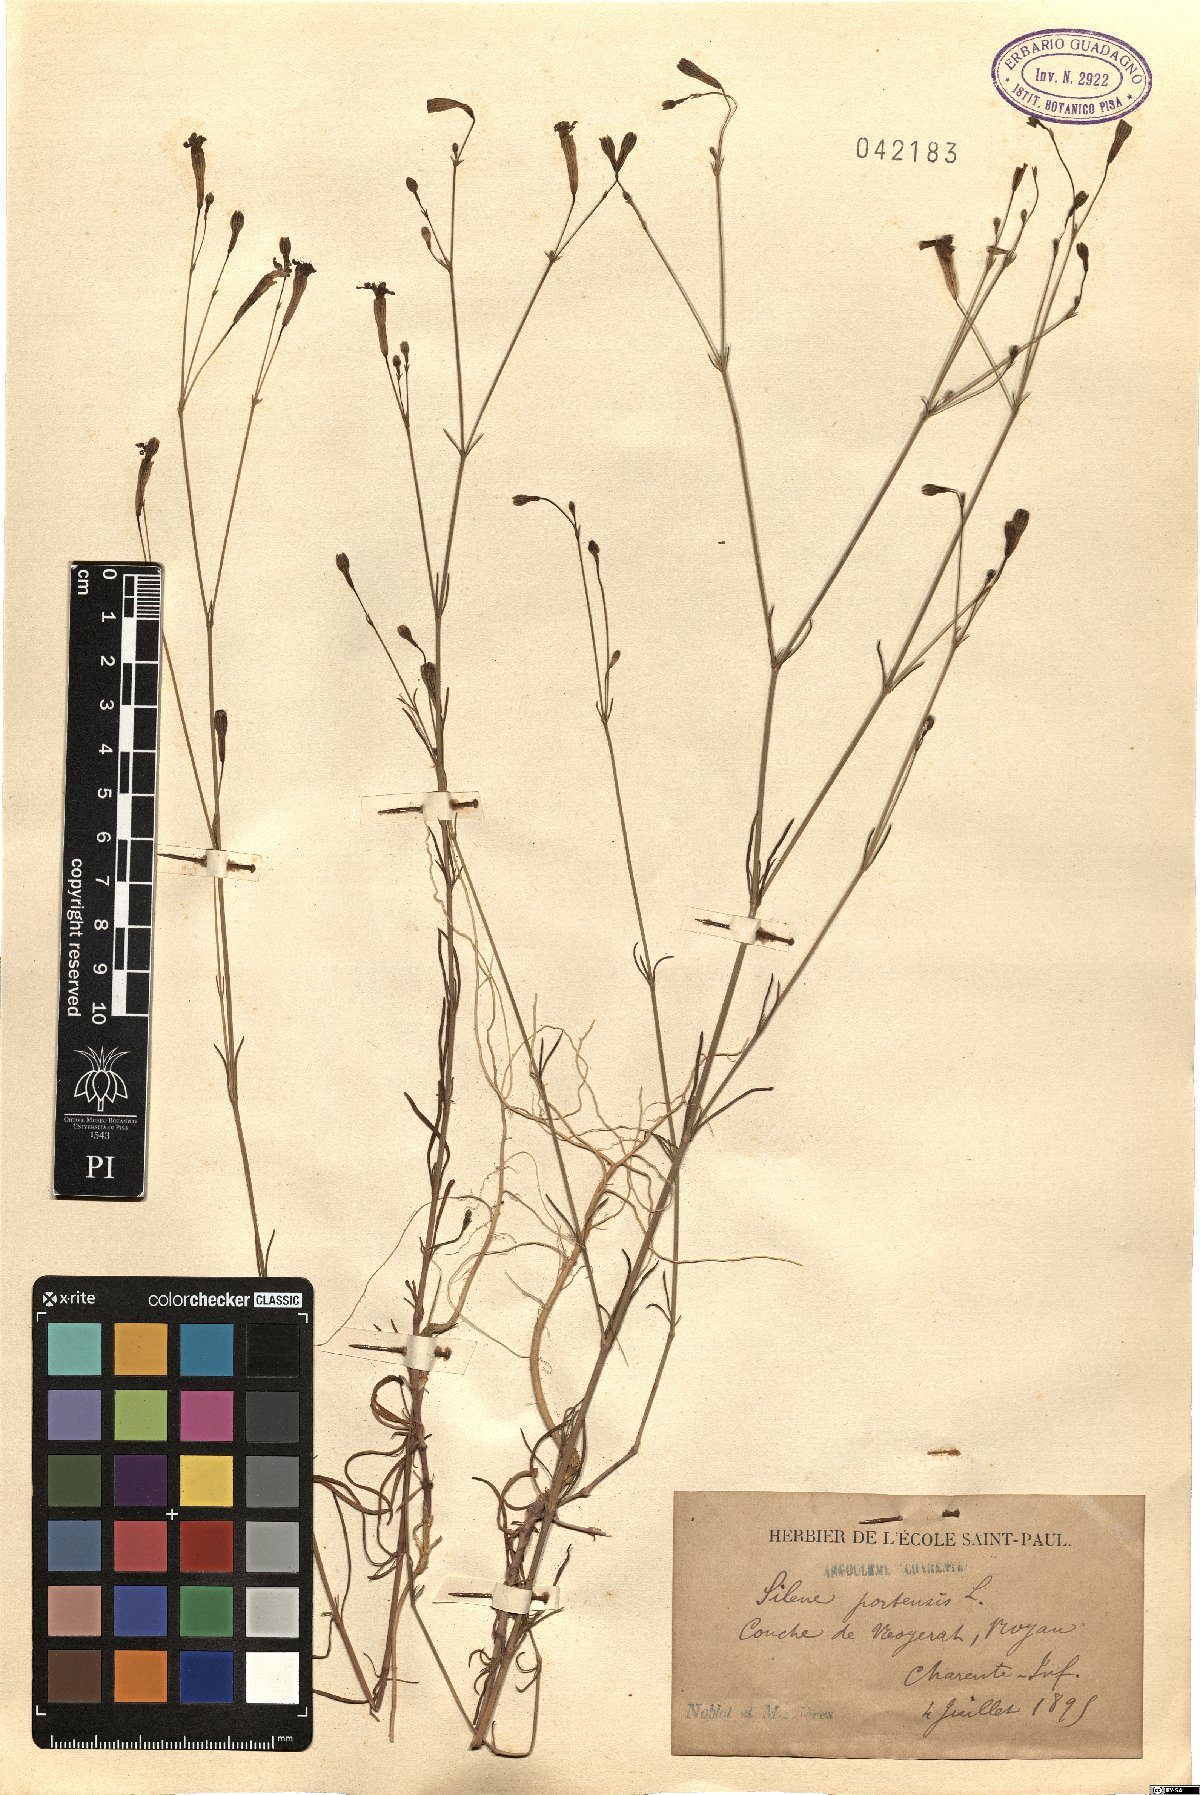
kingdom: Plantae
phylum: Tracheophyta
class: Magnoliopsida
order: Caryophyllales
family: Caryophyllaceae
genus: Silene
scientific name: Silene portensis
